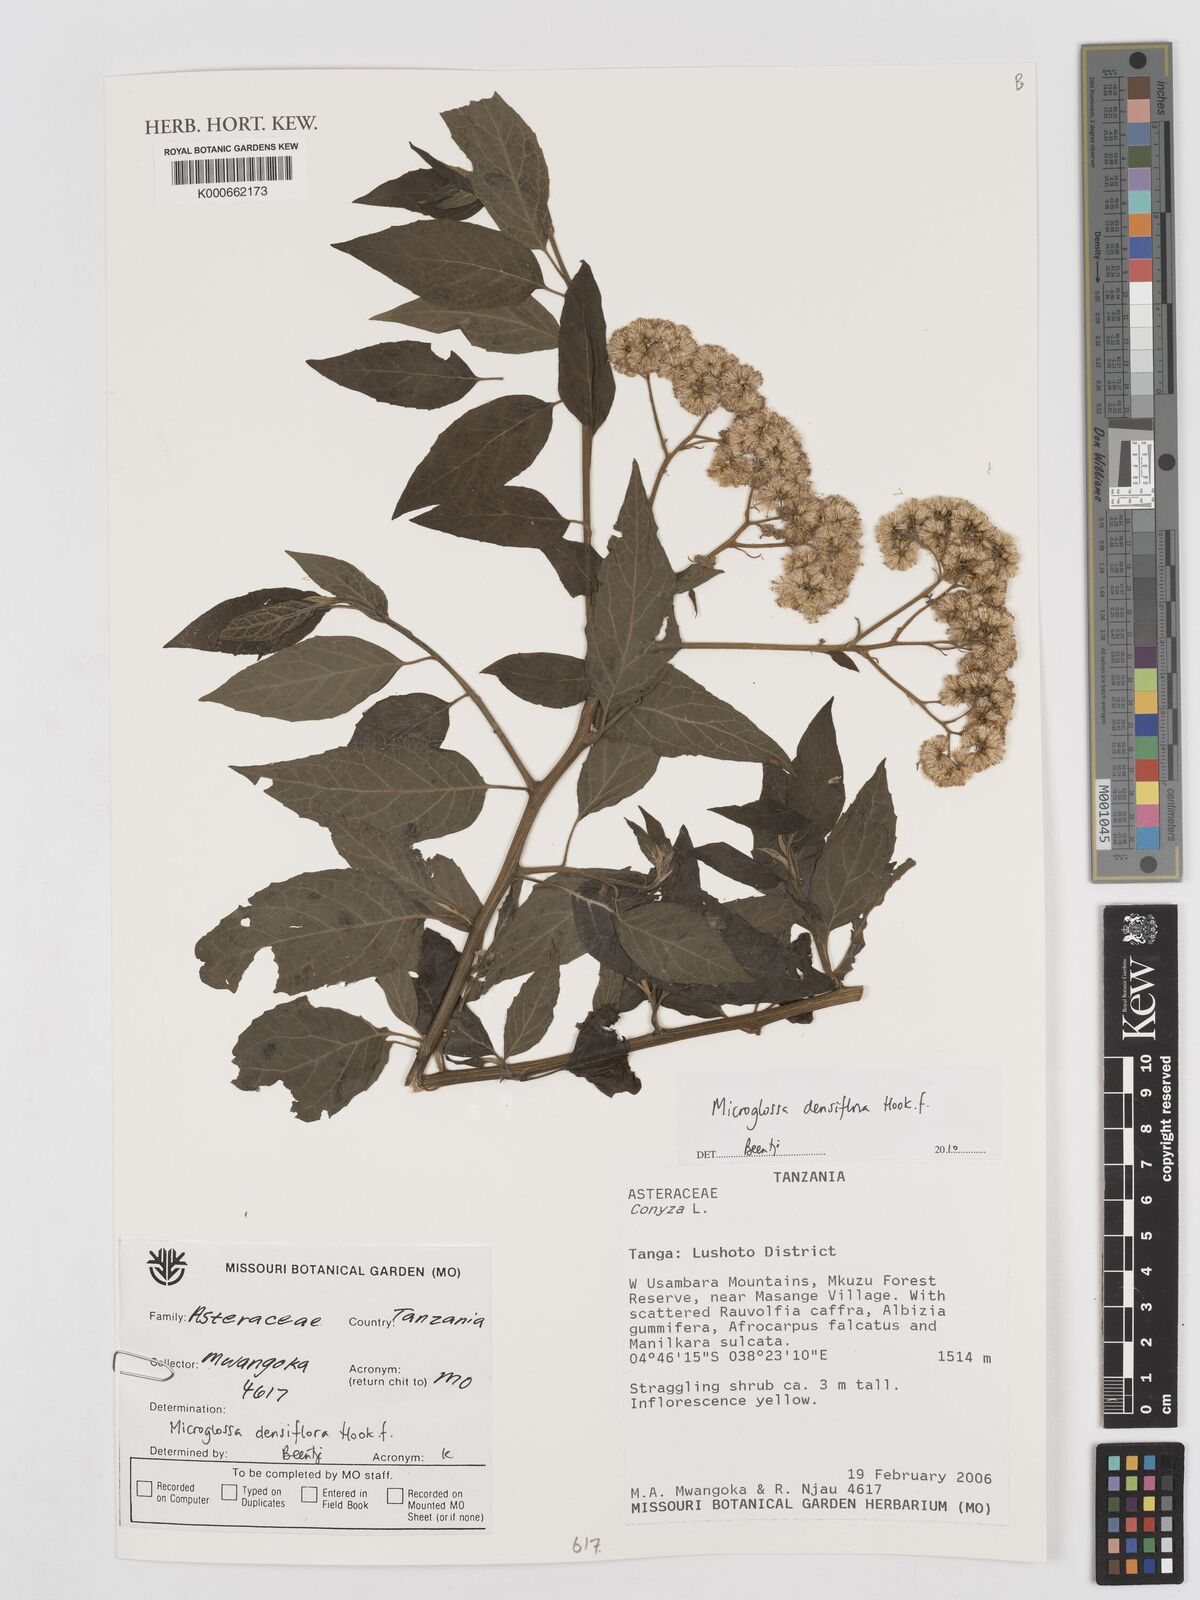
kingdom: Plantae
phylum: Tracheophyta
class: Magnoliopsida
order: Asterales
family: Asteraceae
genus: Microglossa
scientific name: Microglossa densiflora
